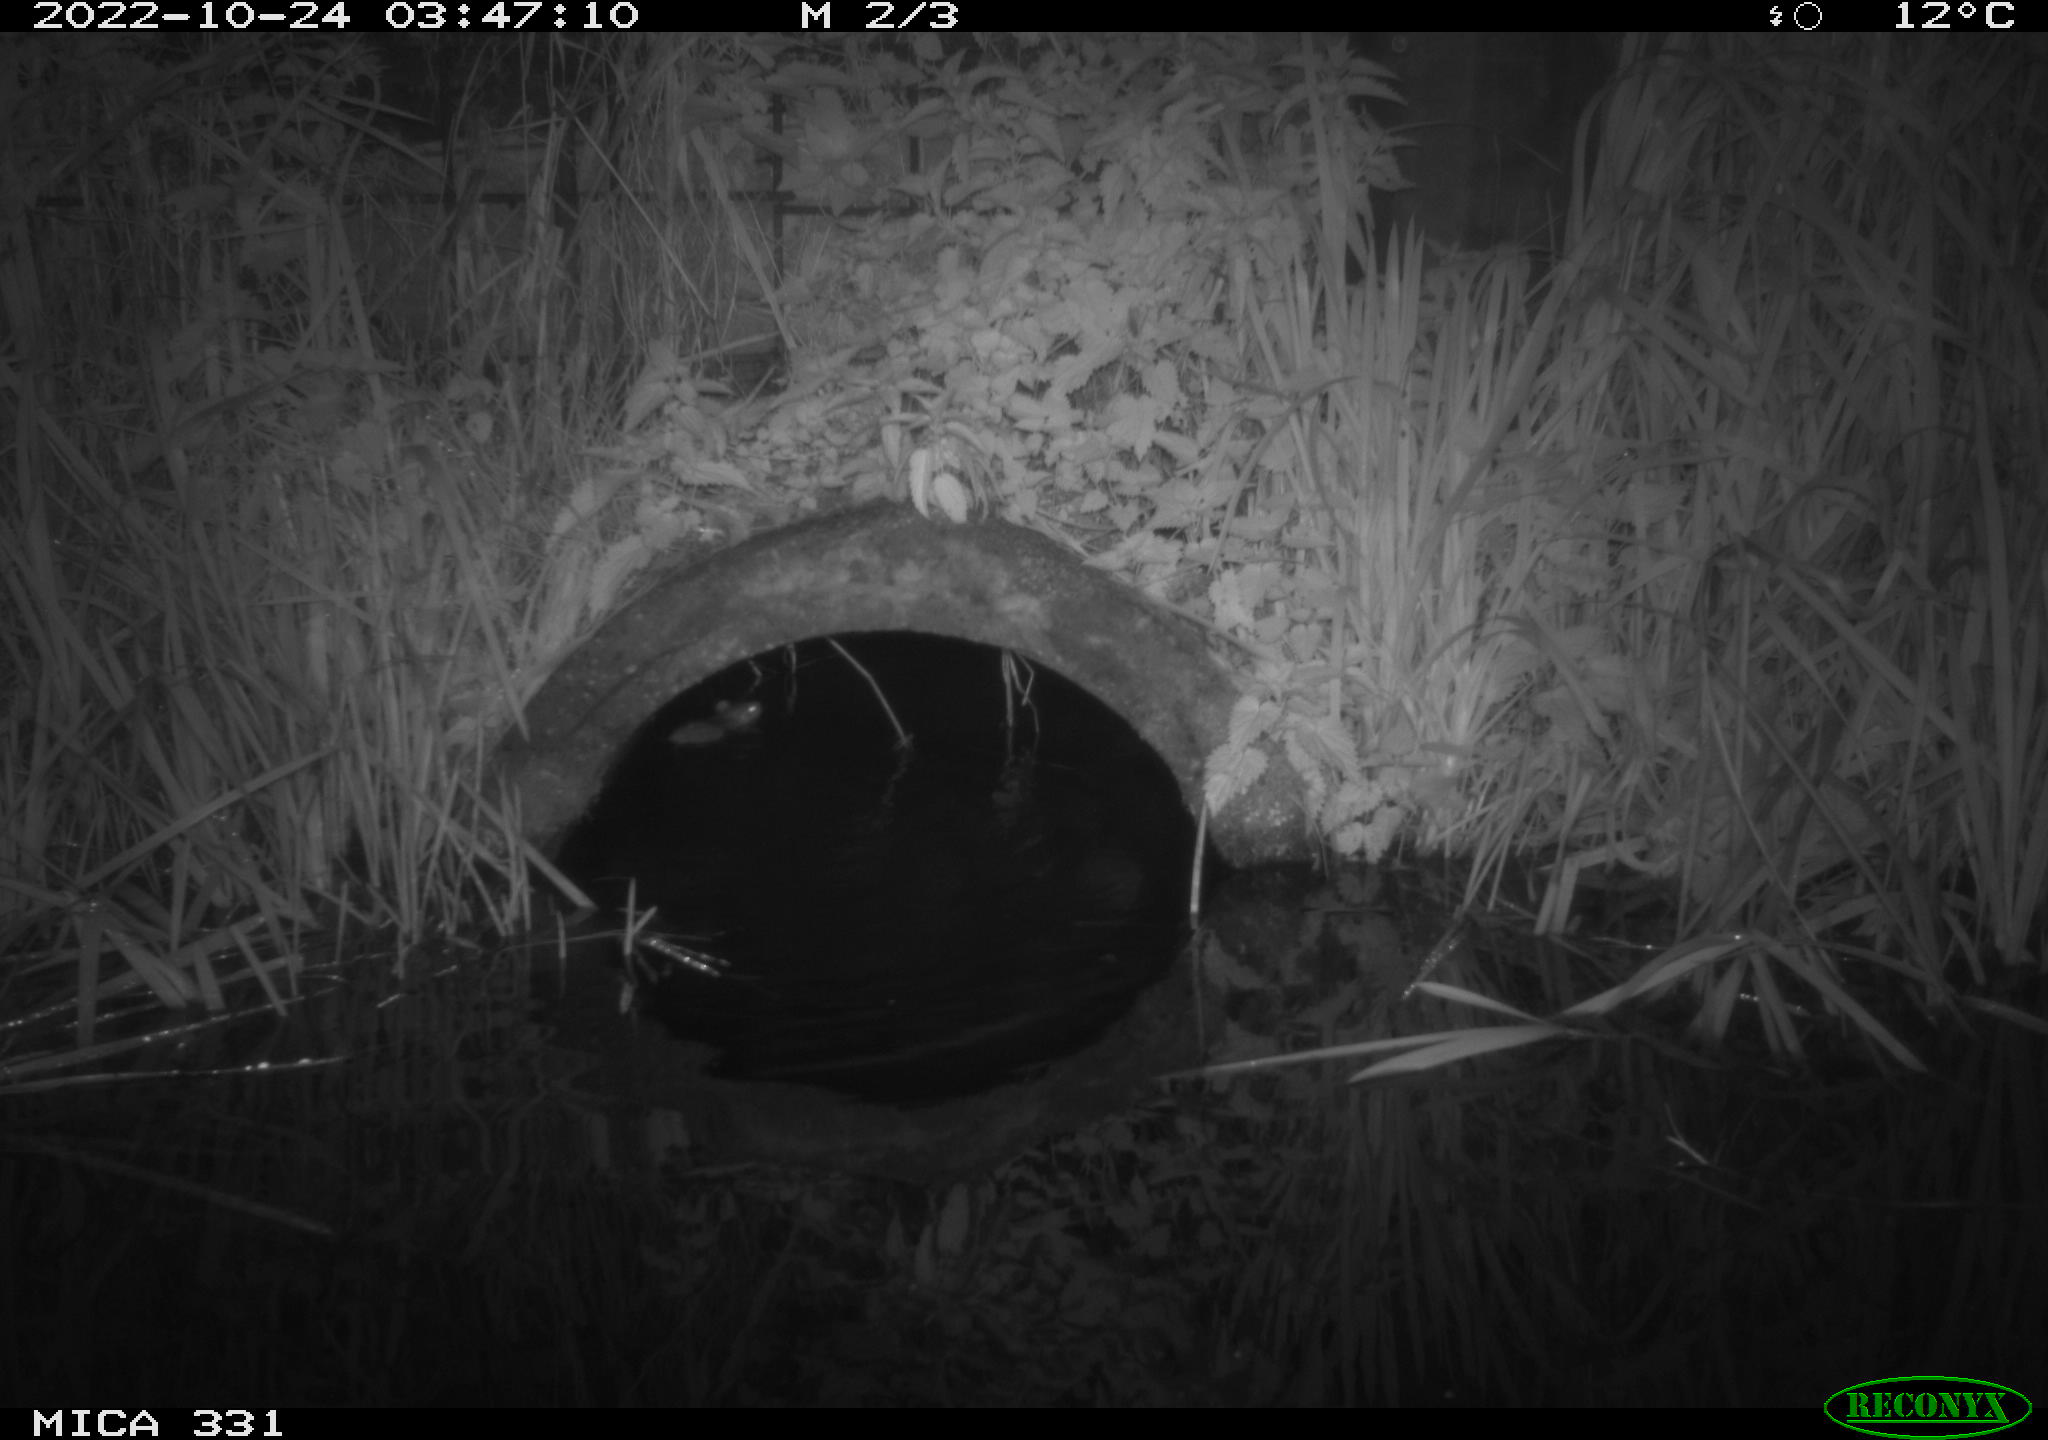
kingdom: Animalia
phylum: Chordata
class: Mammalia
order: Rodentia
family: Muridae
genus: Rattus
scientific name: Rattus norvegicus
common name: Brown rat
